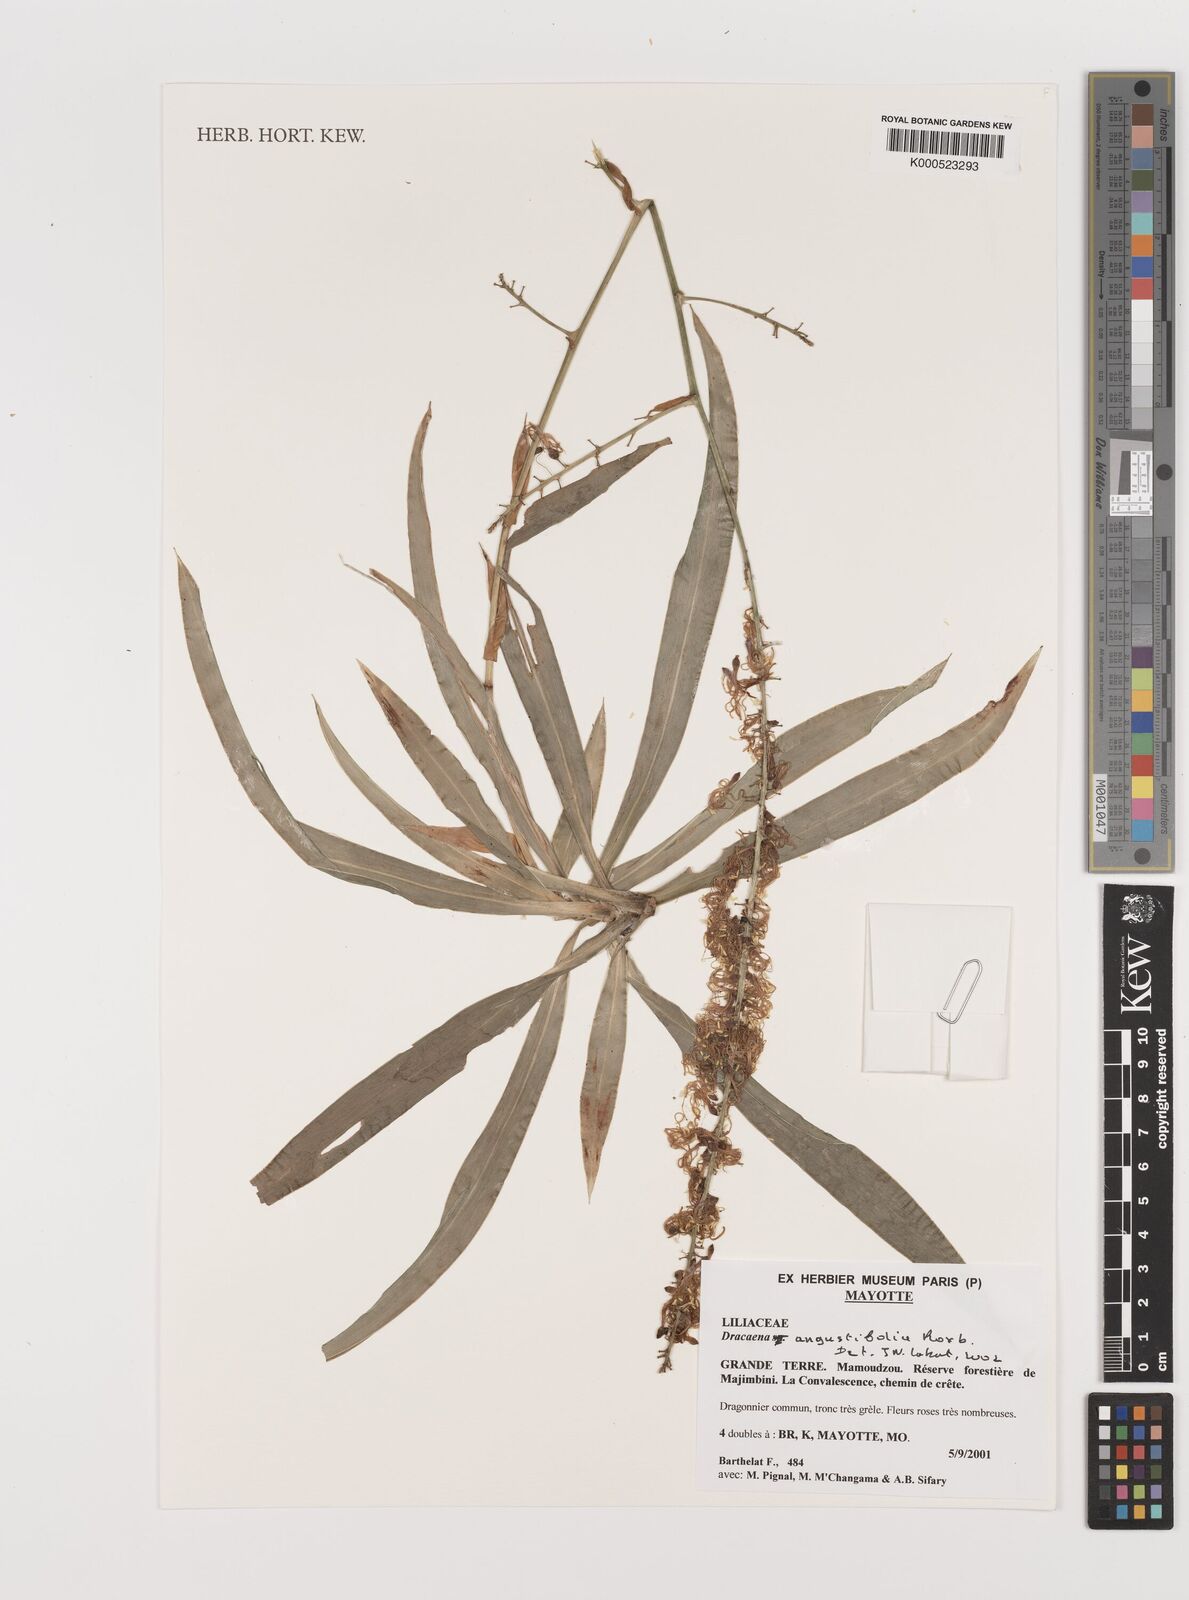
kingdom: Plantae
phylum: Tracheophyta
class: Liliopsida
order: Asparagales
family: Asparagaceae
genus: Dracaena
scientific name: Dracaena angustifolia
